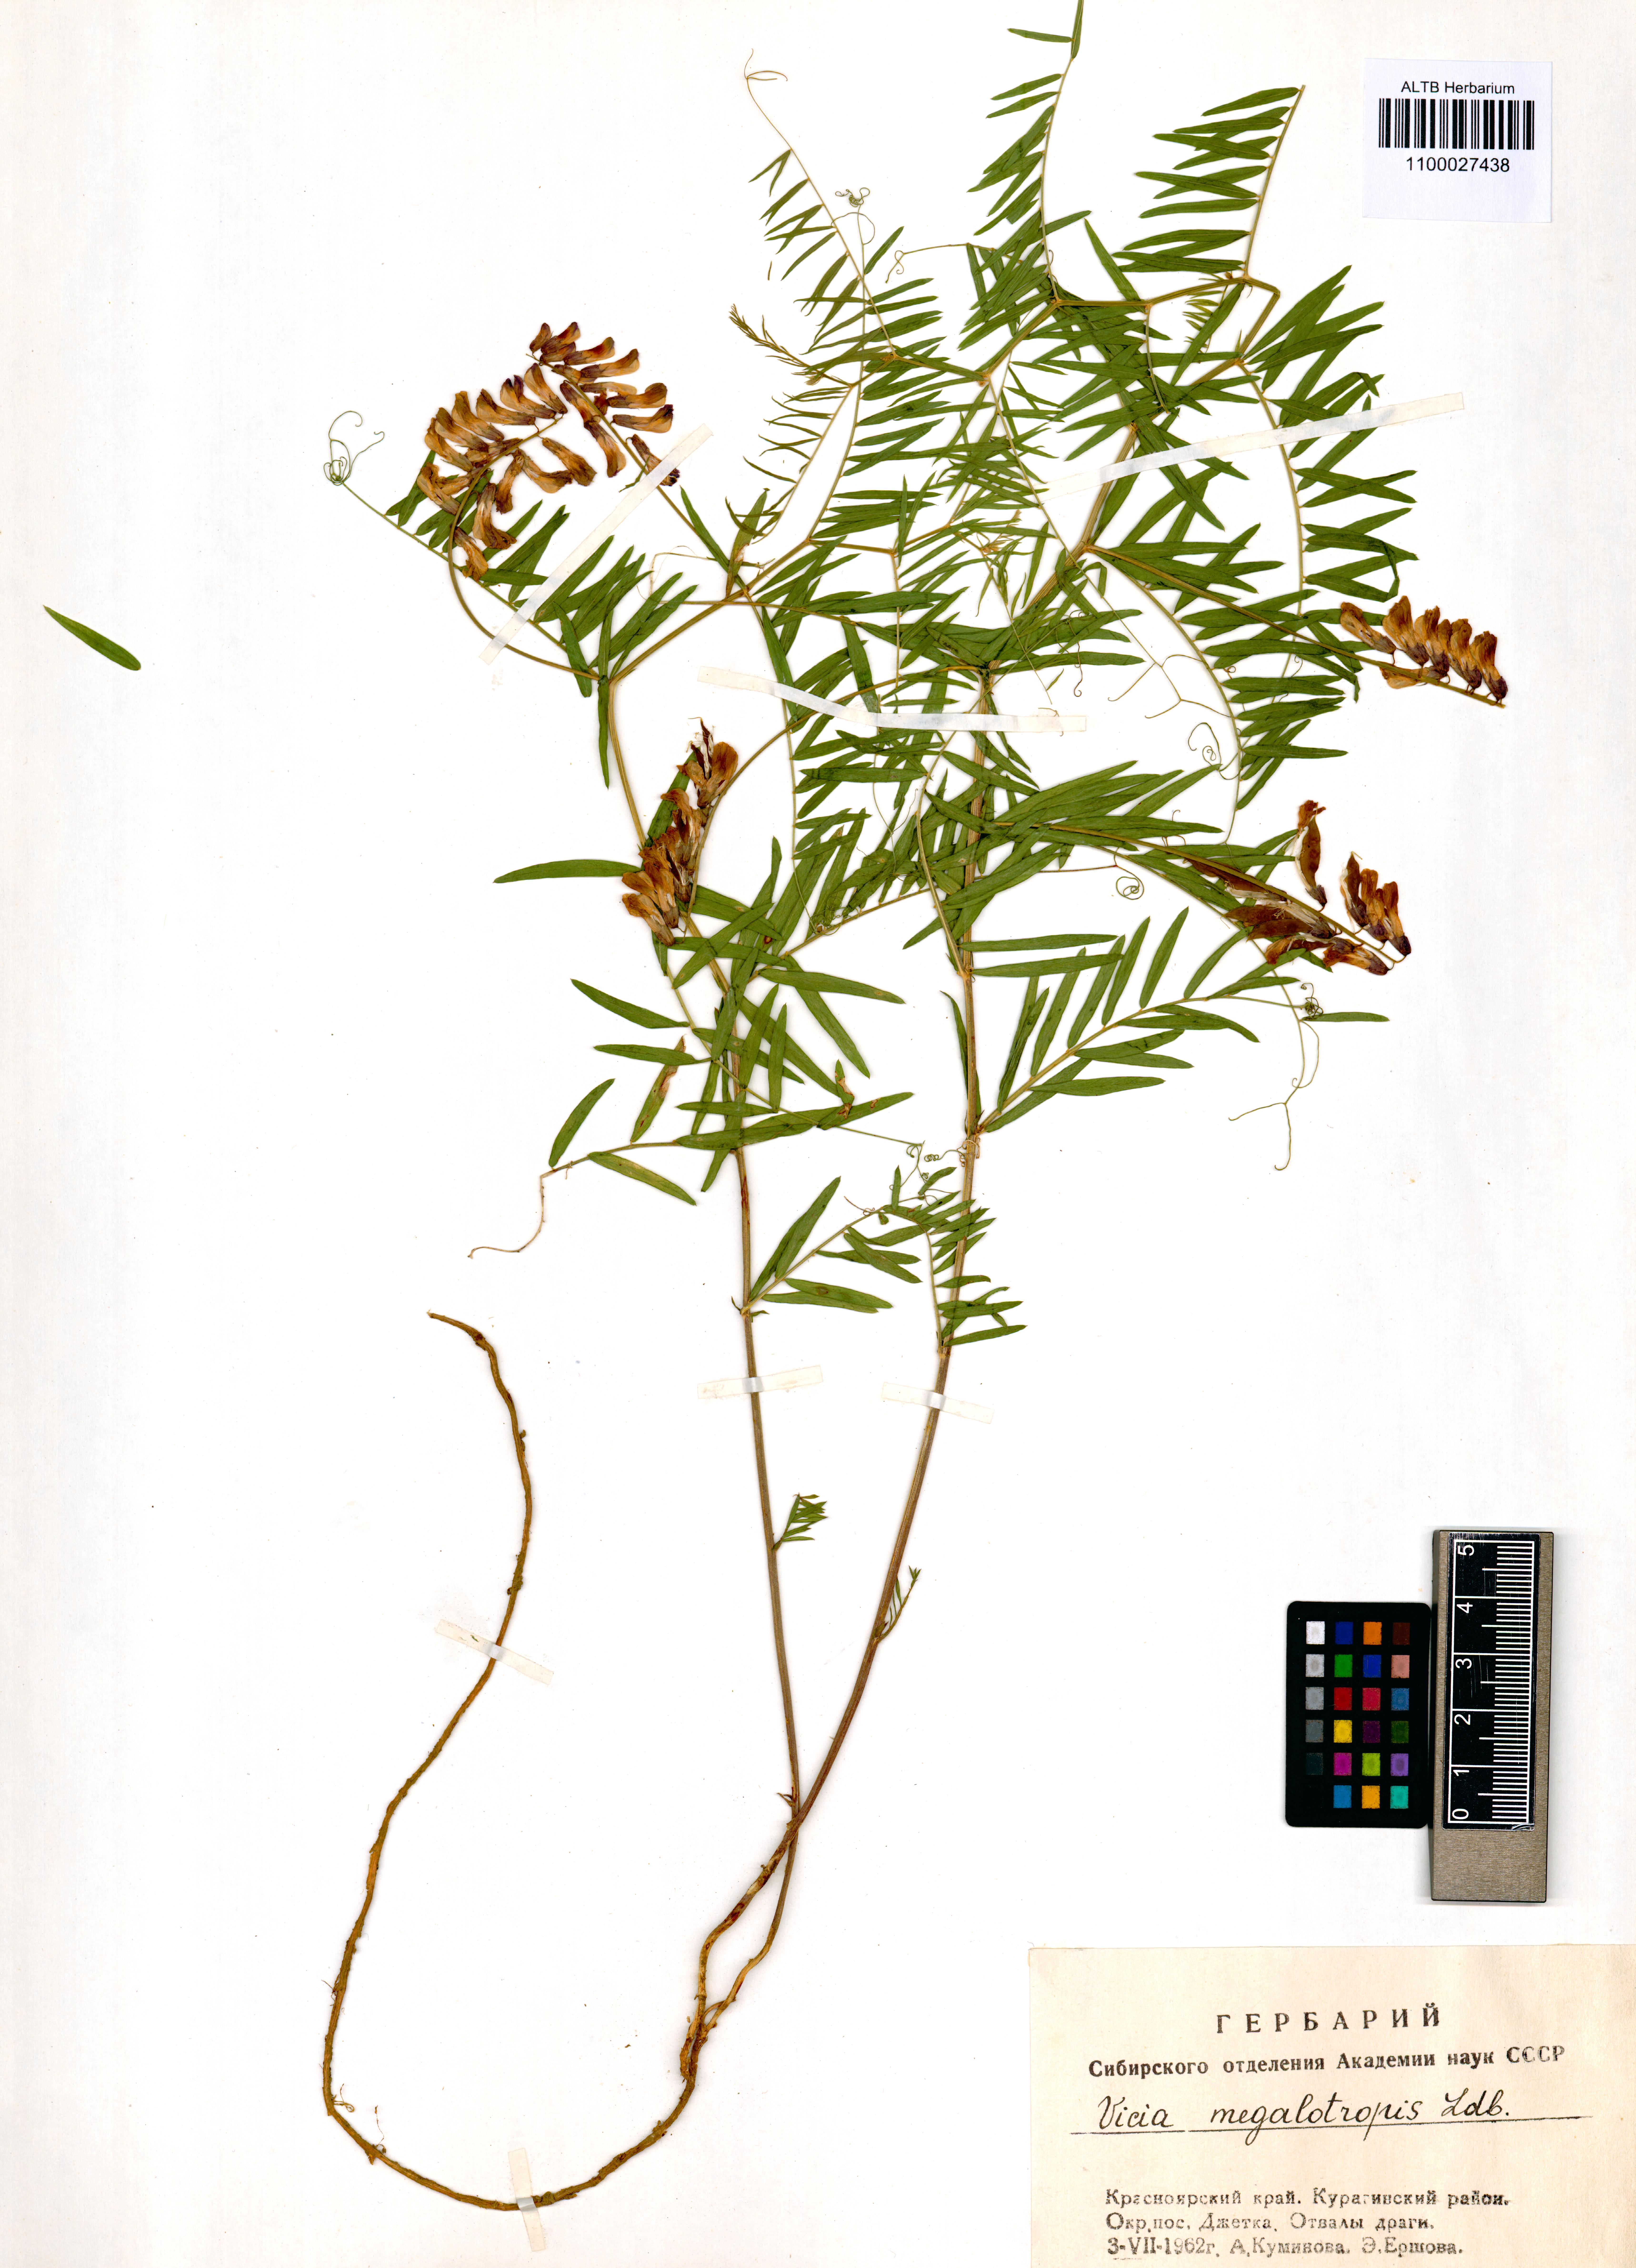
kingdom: Plantae
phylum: Tracheophyta
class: Magnoliopsida
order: Fabales
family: Fabaceae
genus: Vicia
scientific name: Vicia megalotropis
